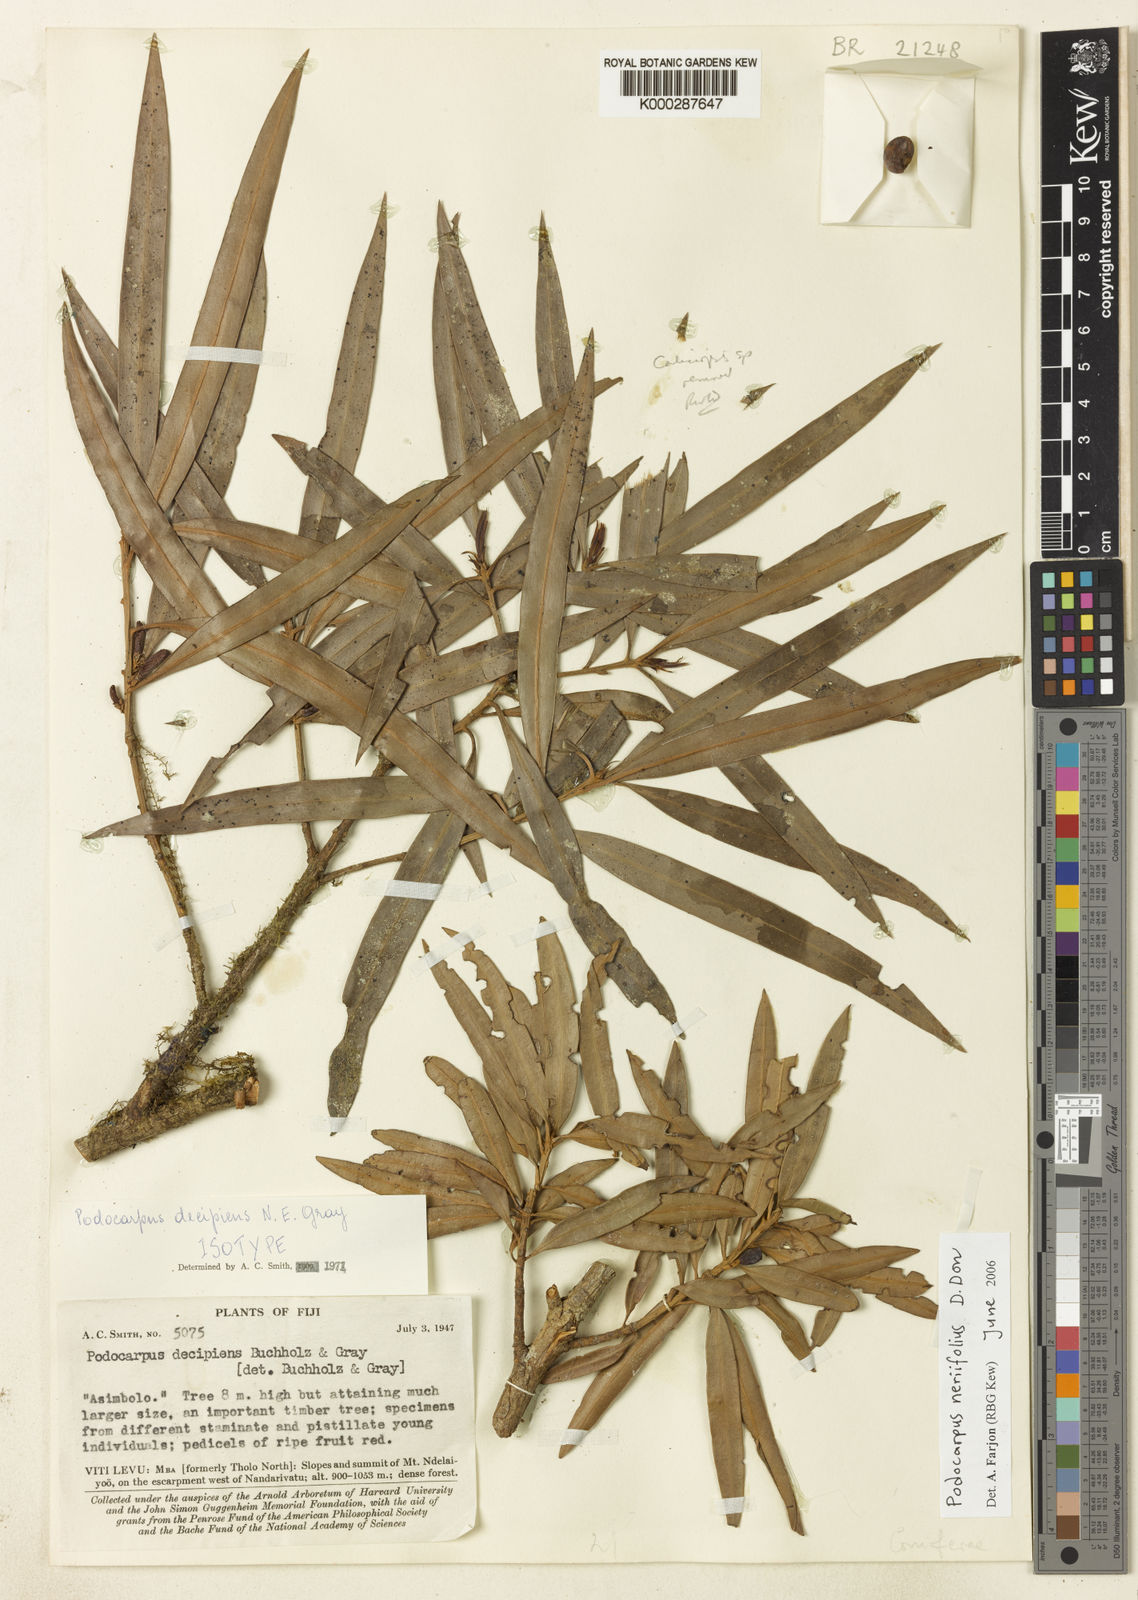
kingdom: Plantae
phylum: Tracheophyta
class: Pinopsida
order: Pinales
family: Podocarpaceae
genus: Podocarpus
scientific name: Podocarpus neriifolius
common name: Brown pine
